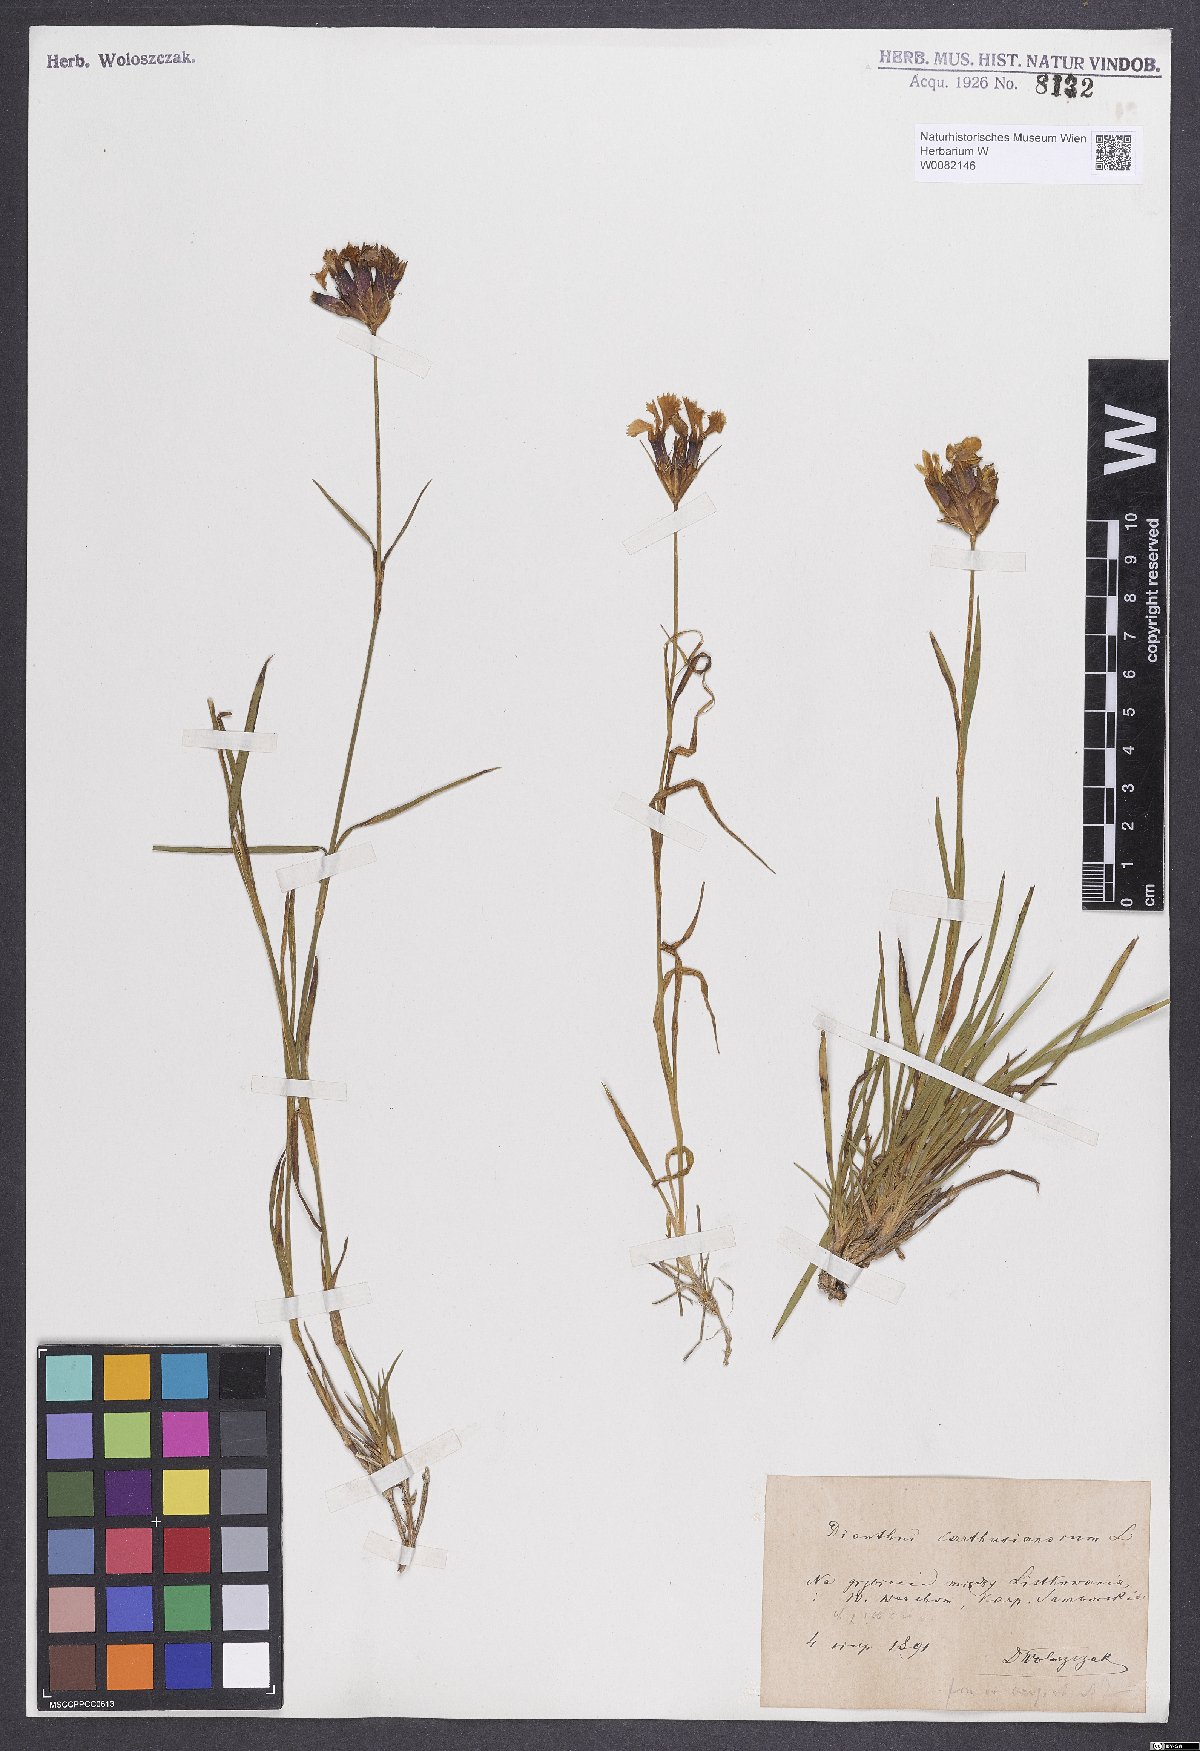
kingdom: Plantae
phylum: Tracheophyta
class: Magnoliopsida
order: Caryophyllales
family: Caryophyllaceae
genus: Dianthus
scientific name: Dianthus carthusianorum
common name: Carthusian pink
